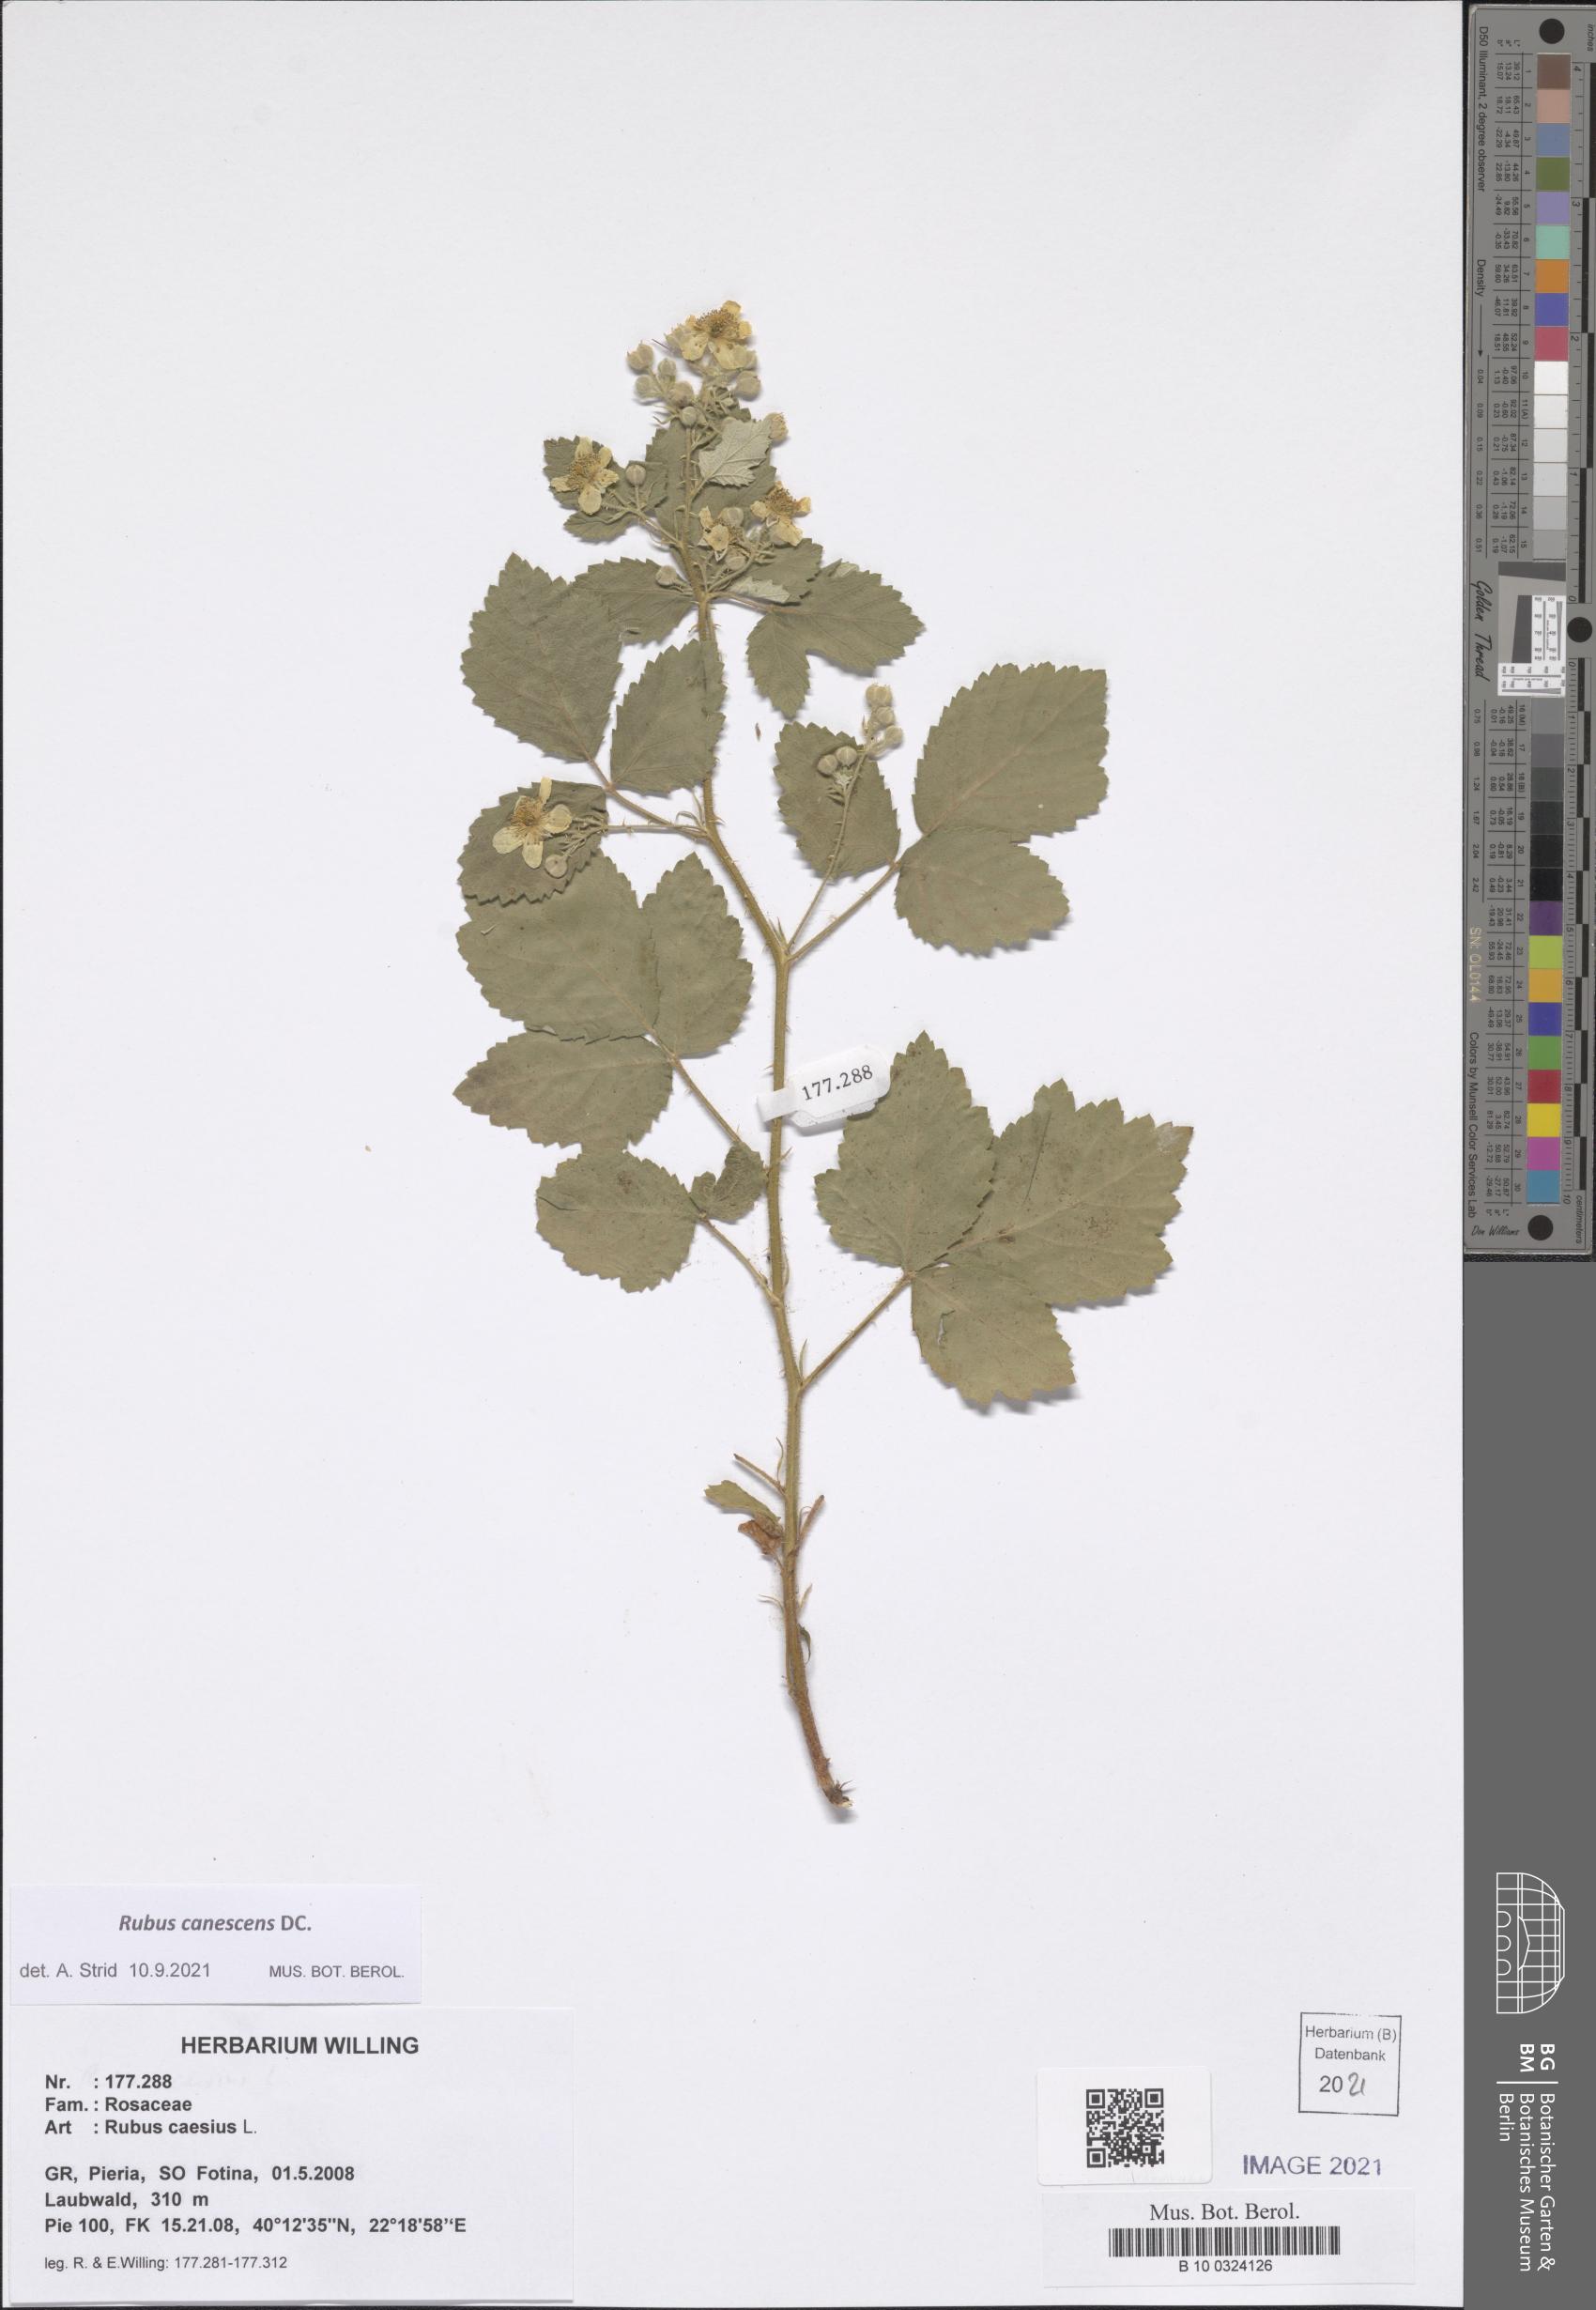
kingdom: Plantae
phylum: Tracheophyta
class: Magnoliopsida
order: Rosales
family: Rosaceae
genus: Rubus
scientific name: Rubus canescens
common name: Wooly blackberry
